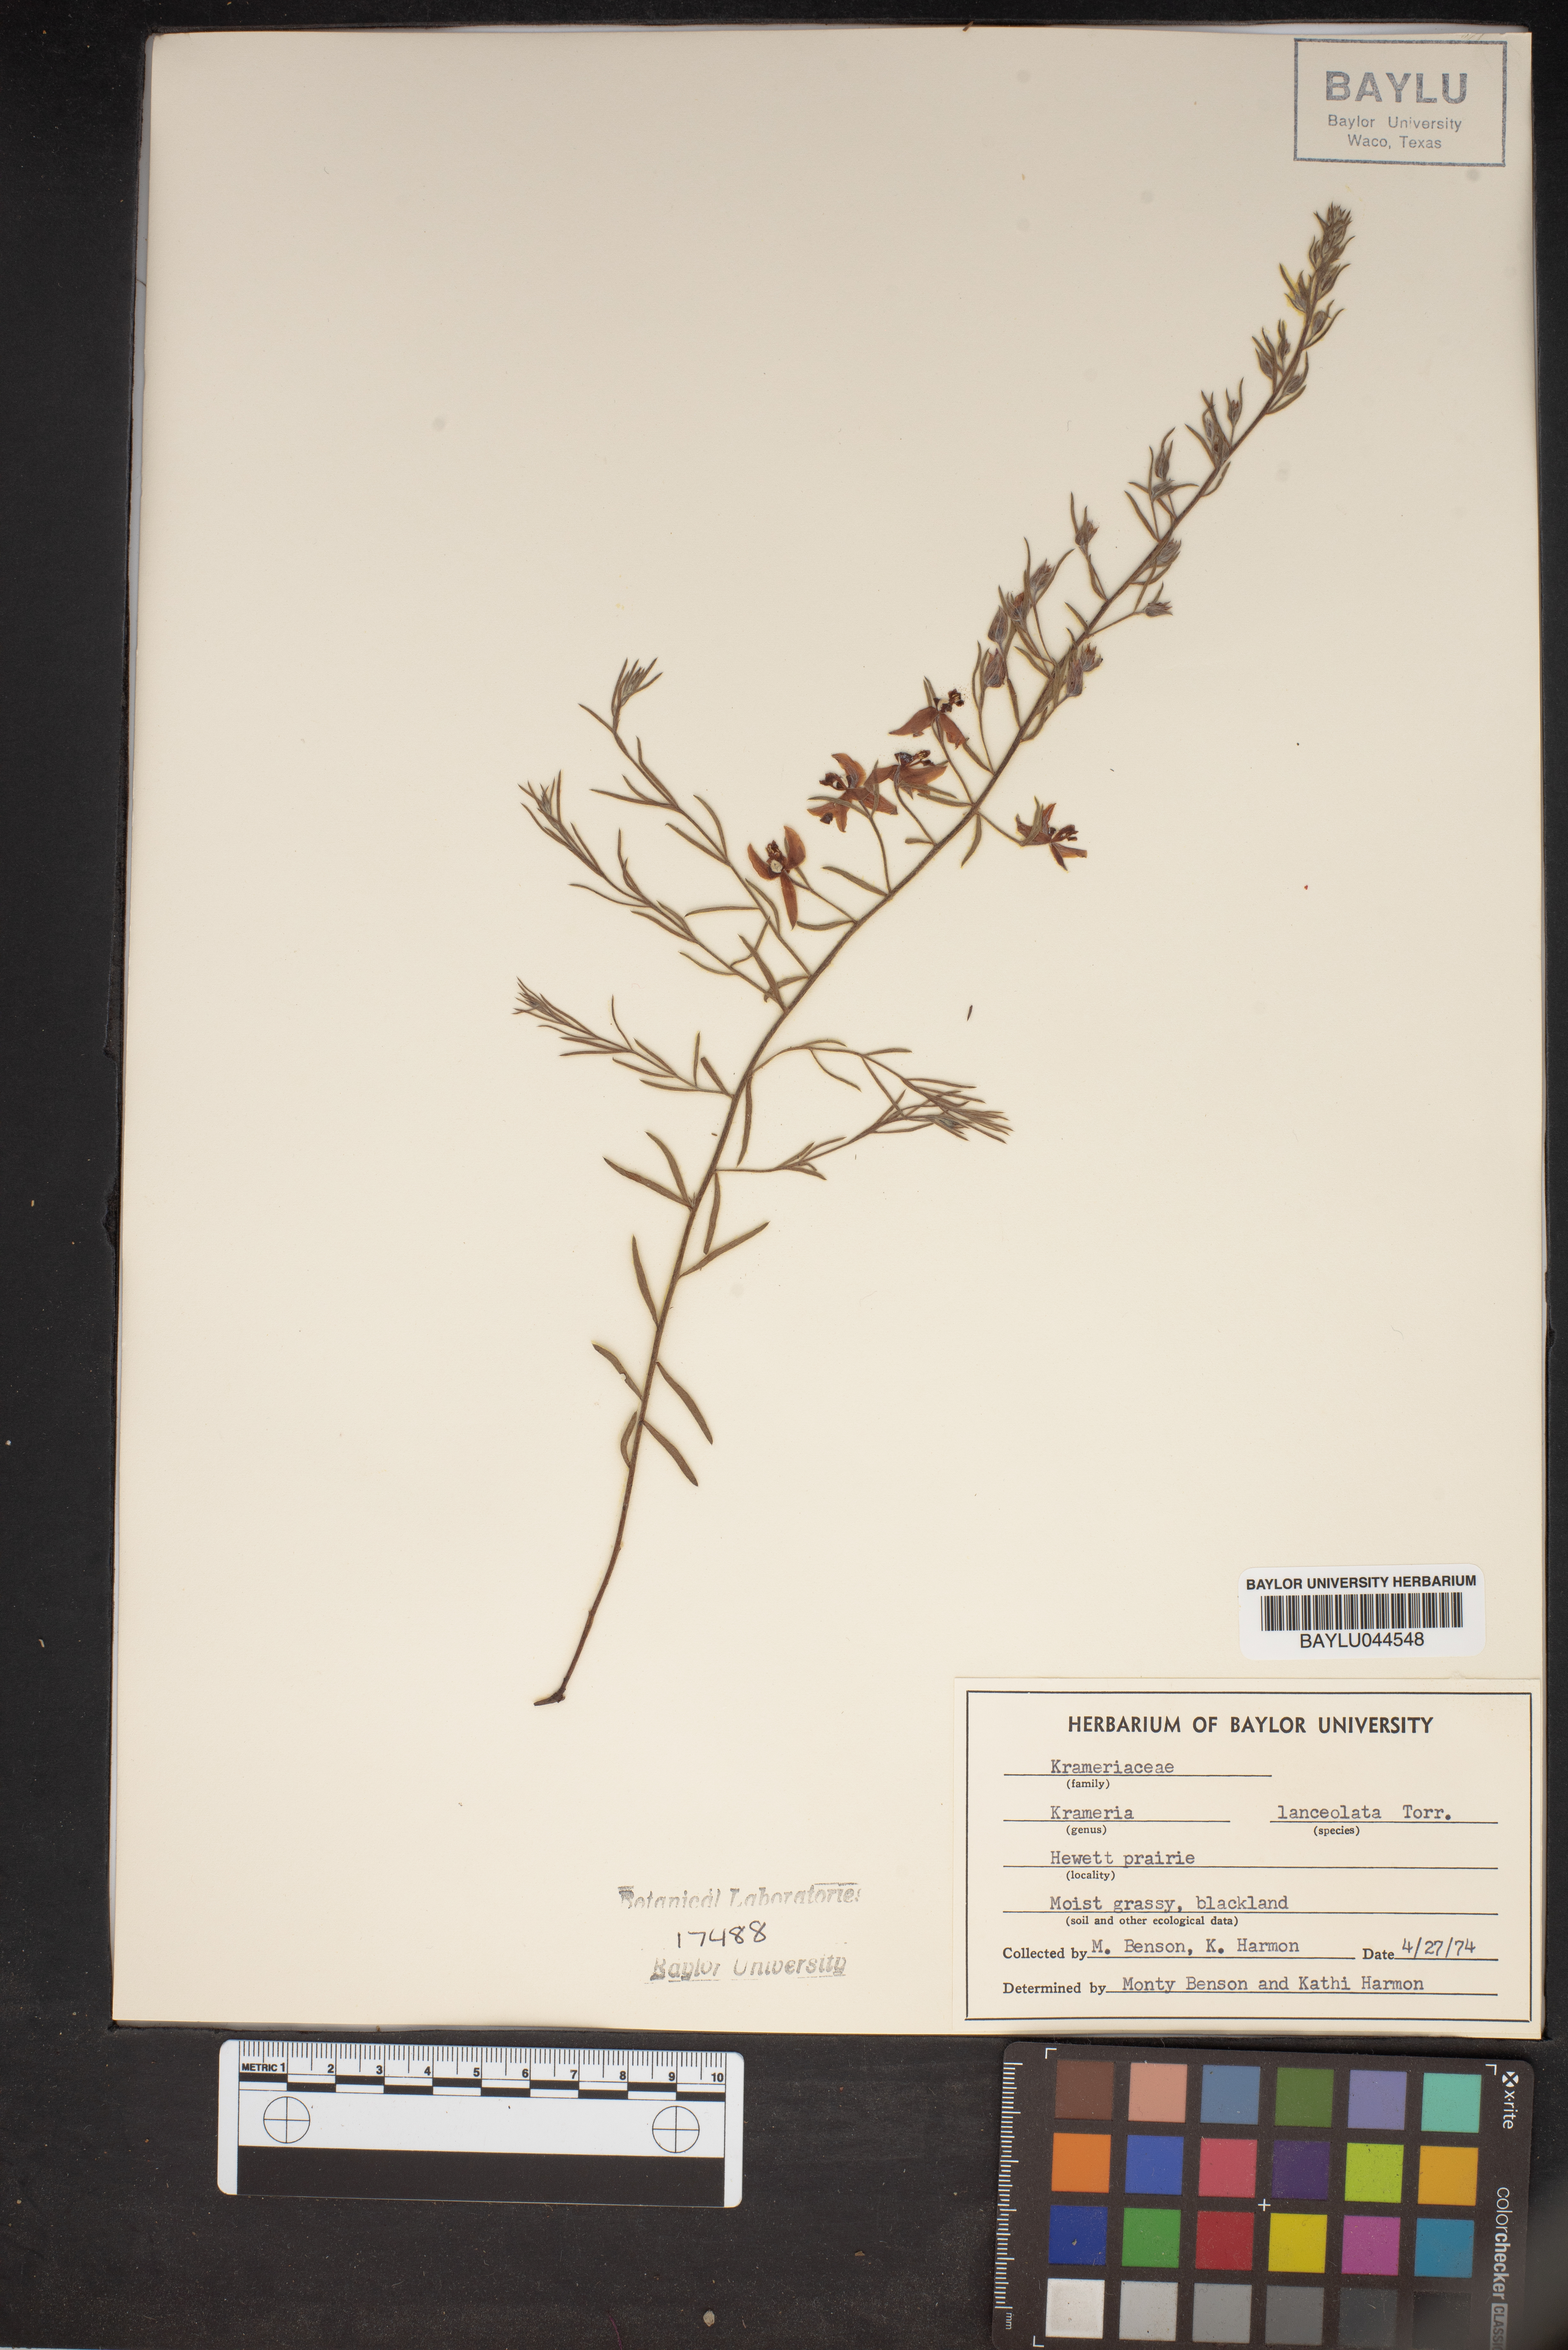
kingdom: Plantae
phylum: Tracheophyta
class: Magnoliopsida
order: Zygophyllales
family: Krameriaceae
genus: Krameria
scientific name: Krameria lanceolata
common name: Ratany
